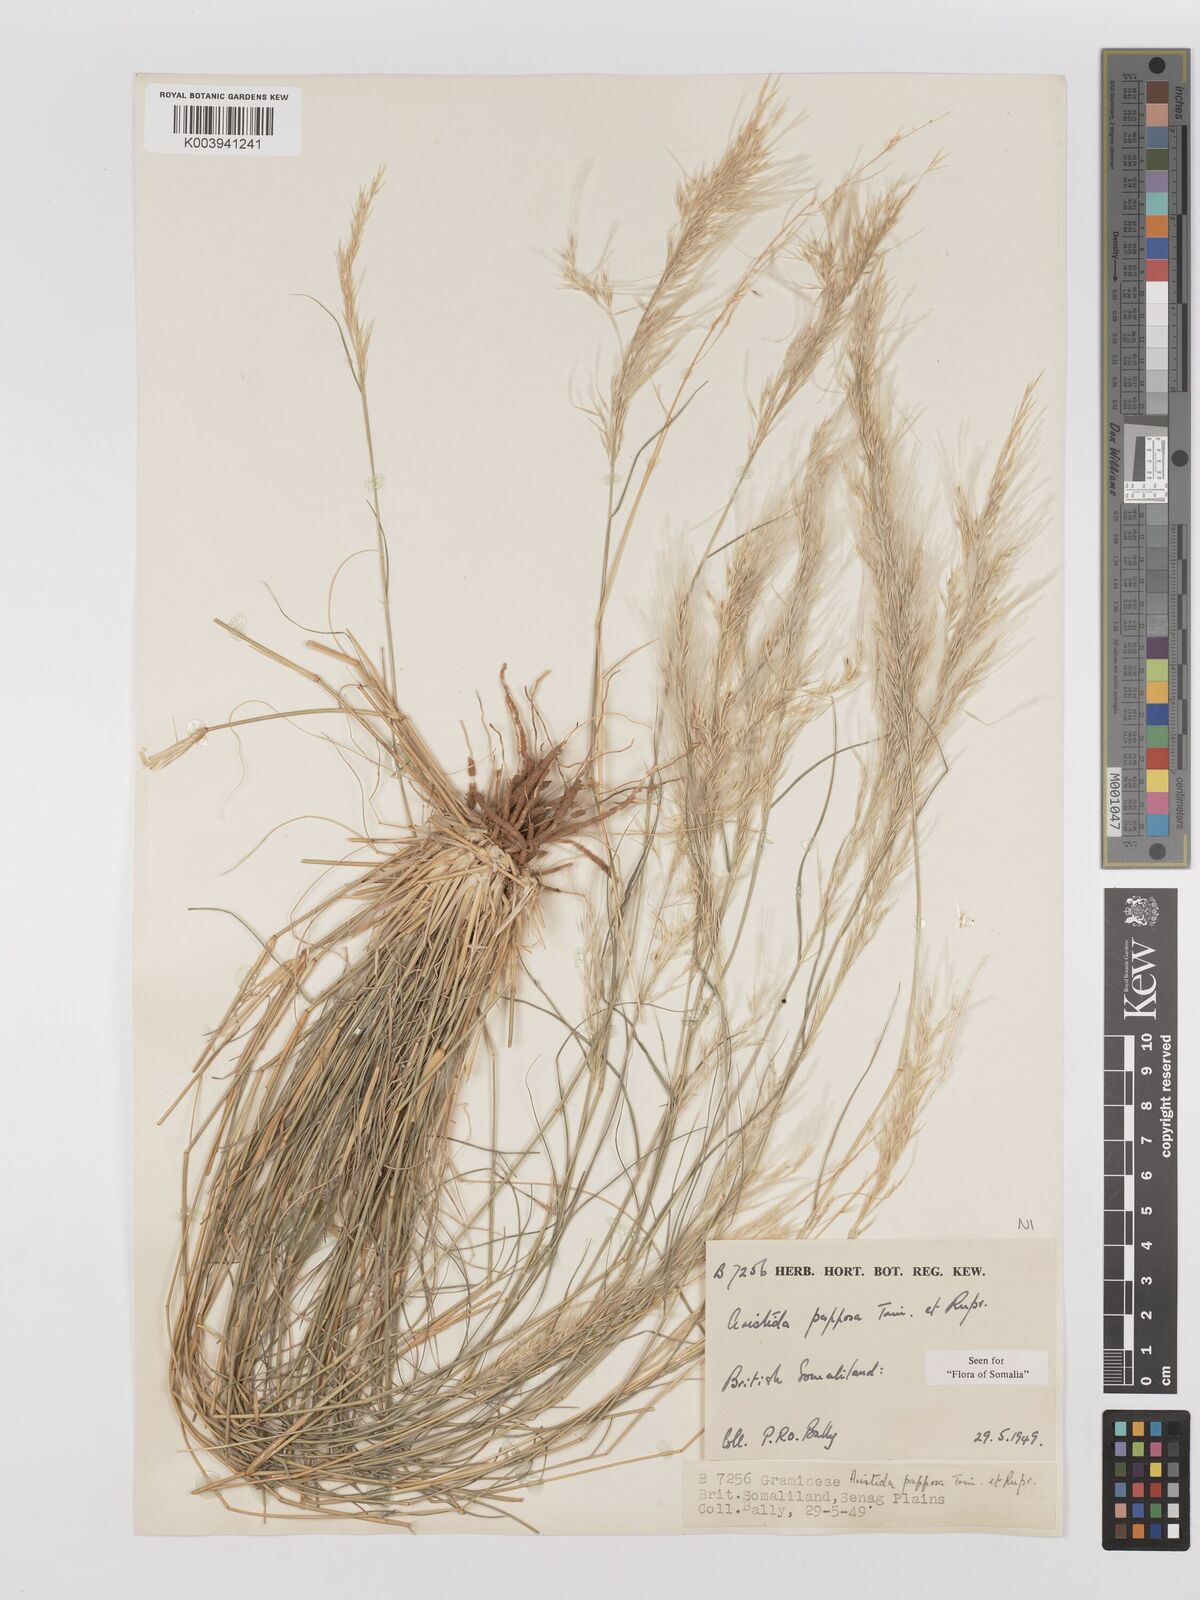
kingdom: Plantae
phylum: Tracheophyta
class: Liliopsida
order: Poales
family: Poaceae
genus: Stipagrostis
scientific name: Stipagrostis uniplumis
